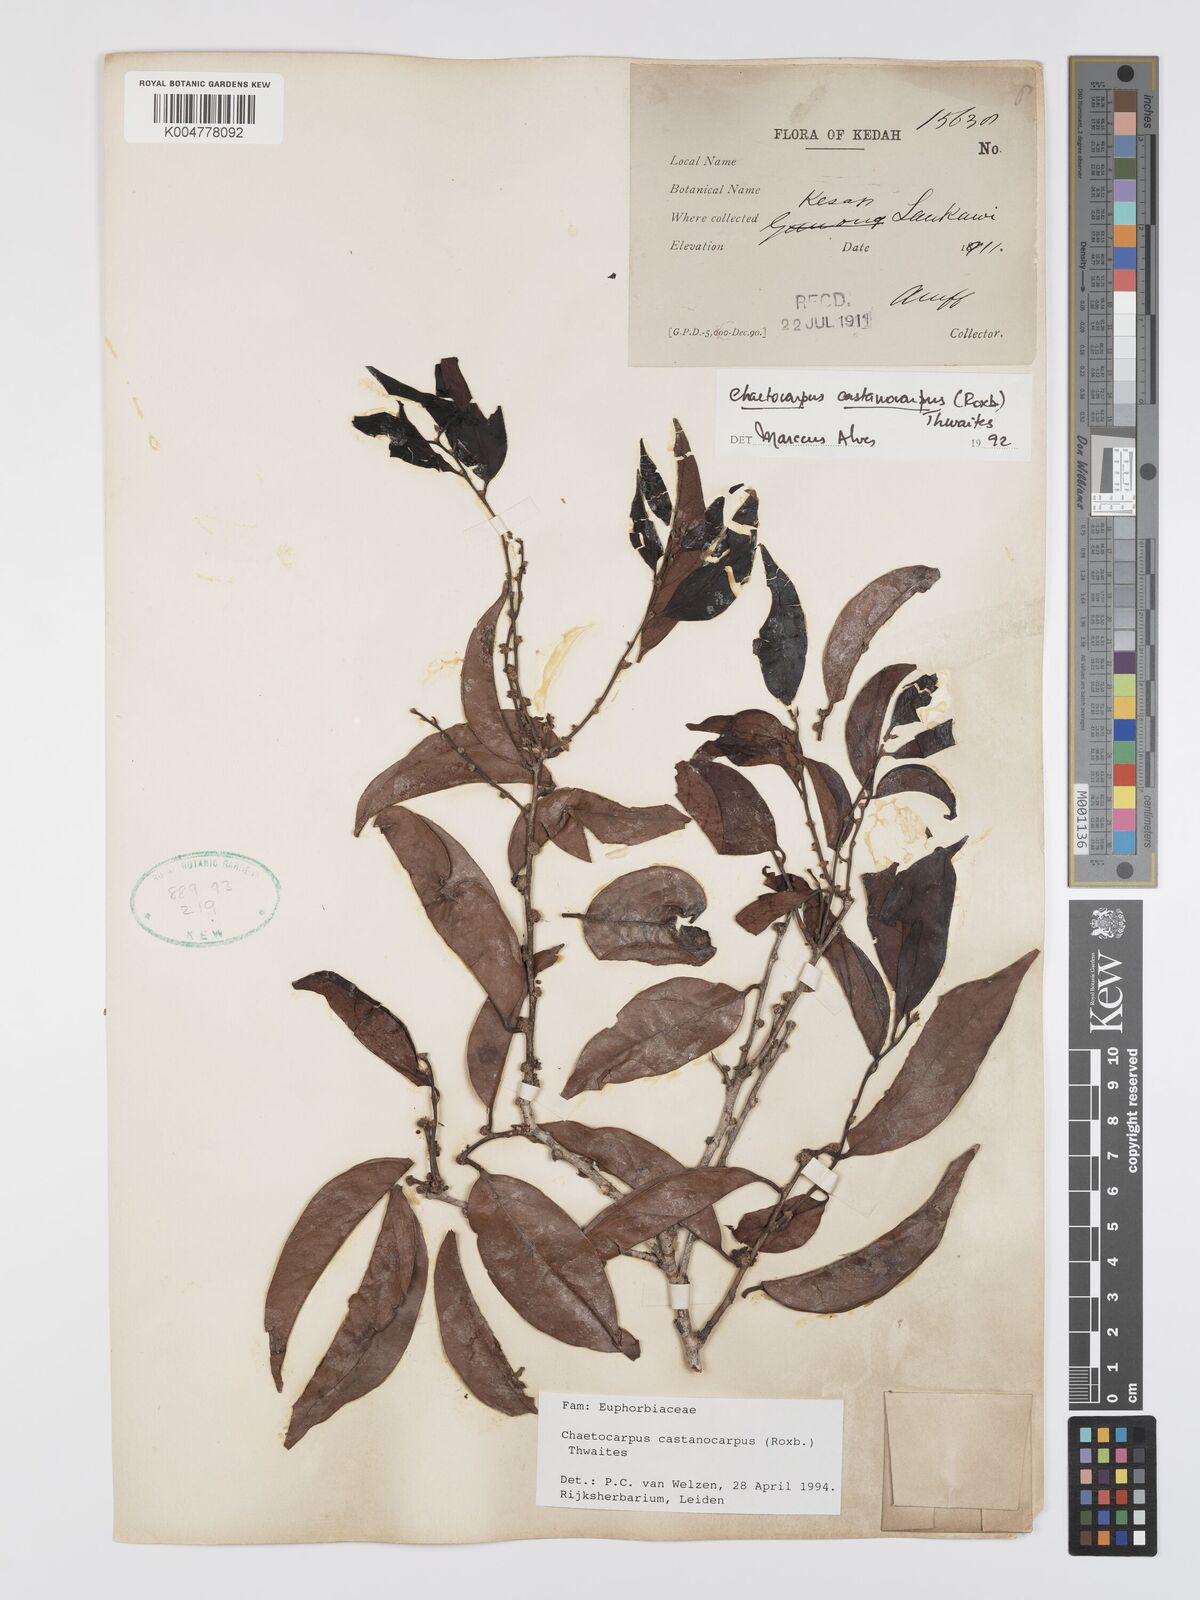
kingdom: Plantae
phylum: Tracheophyta
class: Magnoliopsida
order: Malpighiales
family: Peraceae
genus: Chaetocarpus
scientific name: Chaetocarpus castanocarpus
